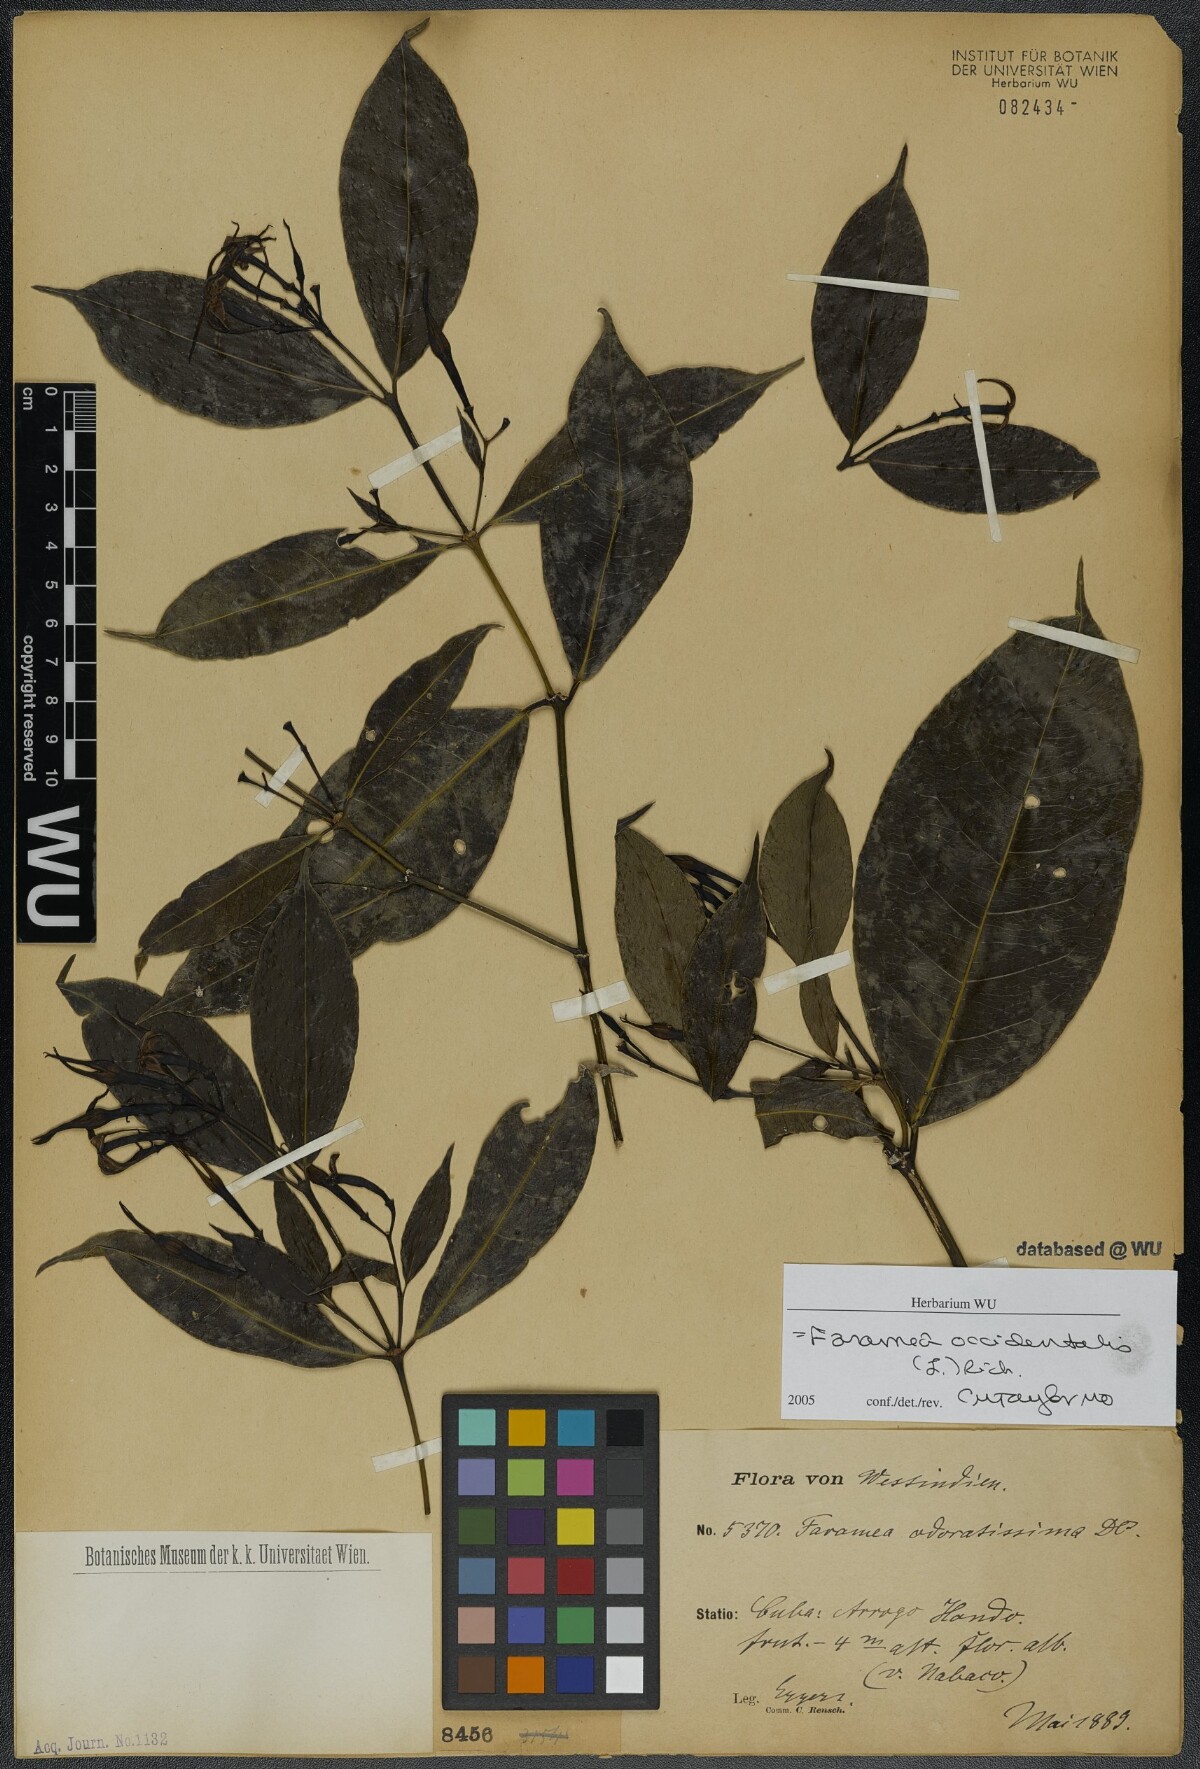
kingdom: Plantae
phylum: Tracheophyta
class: Magnoliopsida
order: Gentianales
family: Rubiaceae
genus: Faramea
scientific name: Faramea occidentalis
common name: False coffee
